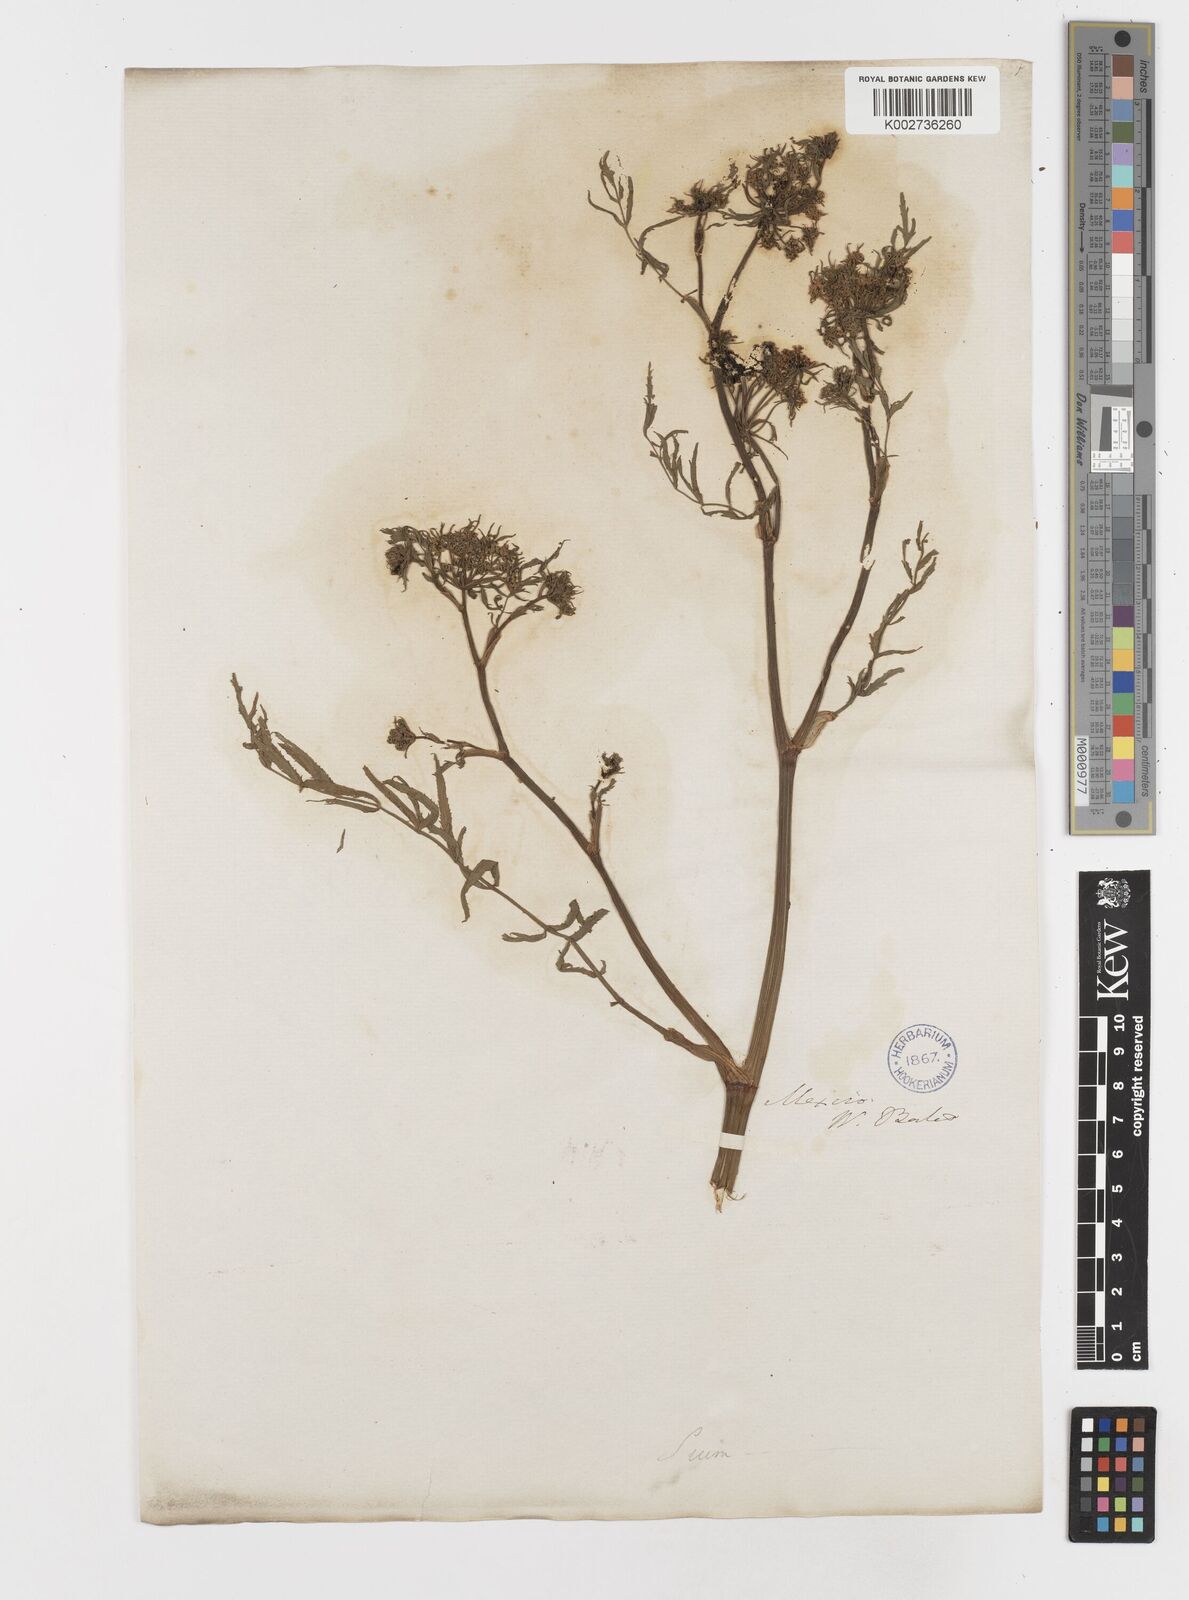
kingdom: Plantae
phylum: Tracheophyta
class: Magnoliopsida
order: Apiales
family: Apiaceae
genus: Berula
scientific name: Berula erecta
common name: Lesser water-parsnip
